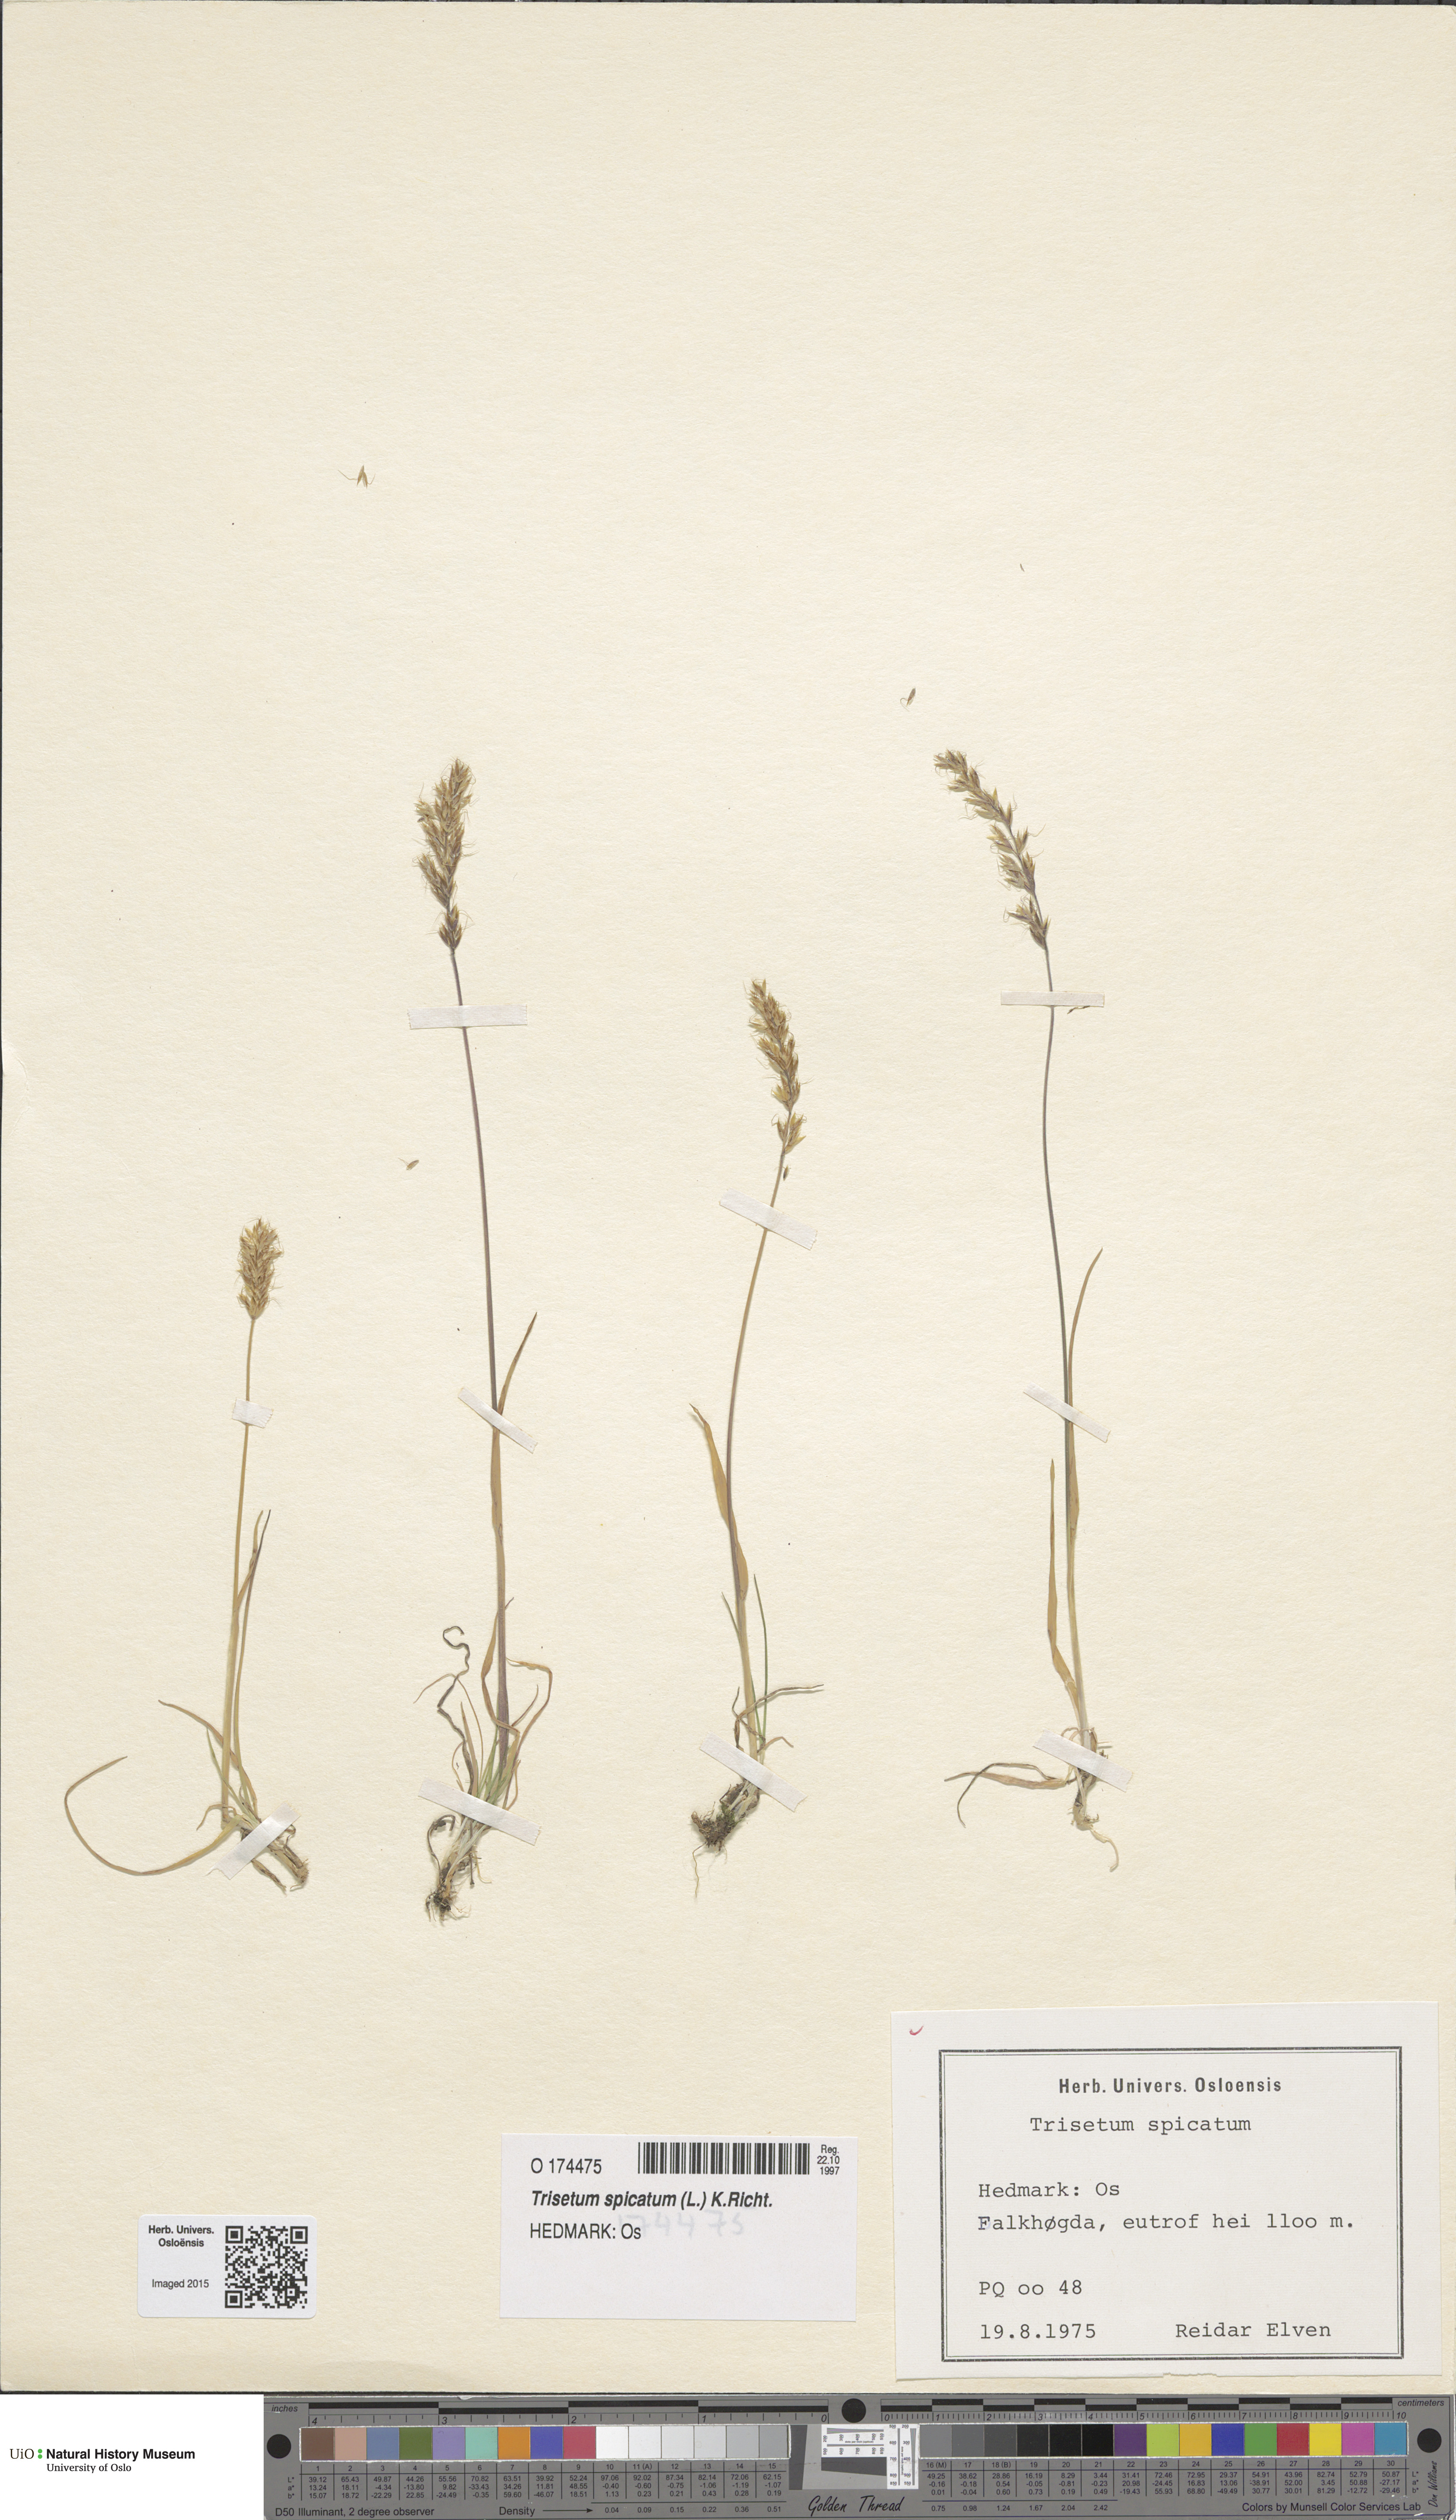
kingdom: Plantae
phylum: Tracheophyta
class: Liliopsida
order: Poales
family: Poaceae
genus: Koeleria
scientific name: Koeleria spicata
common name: Mountain trisetum
